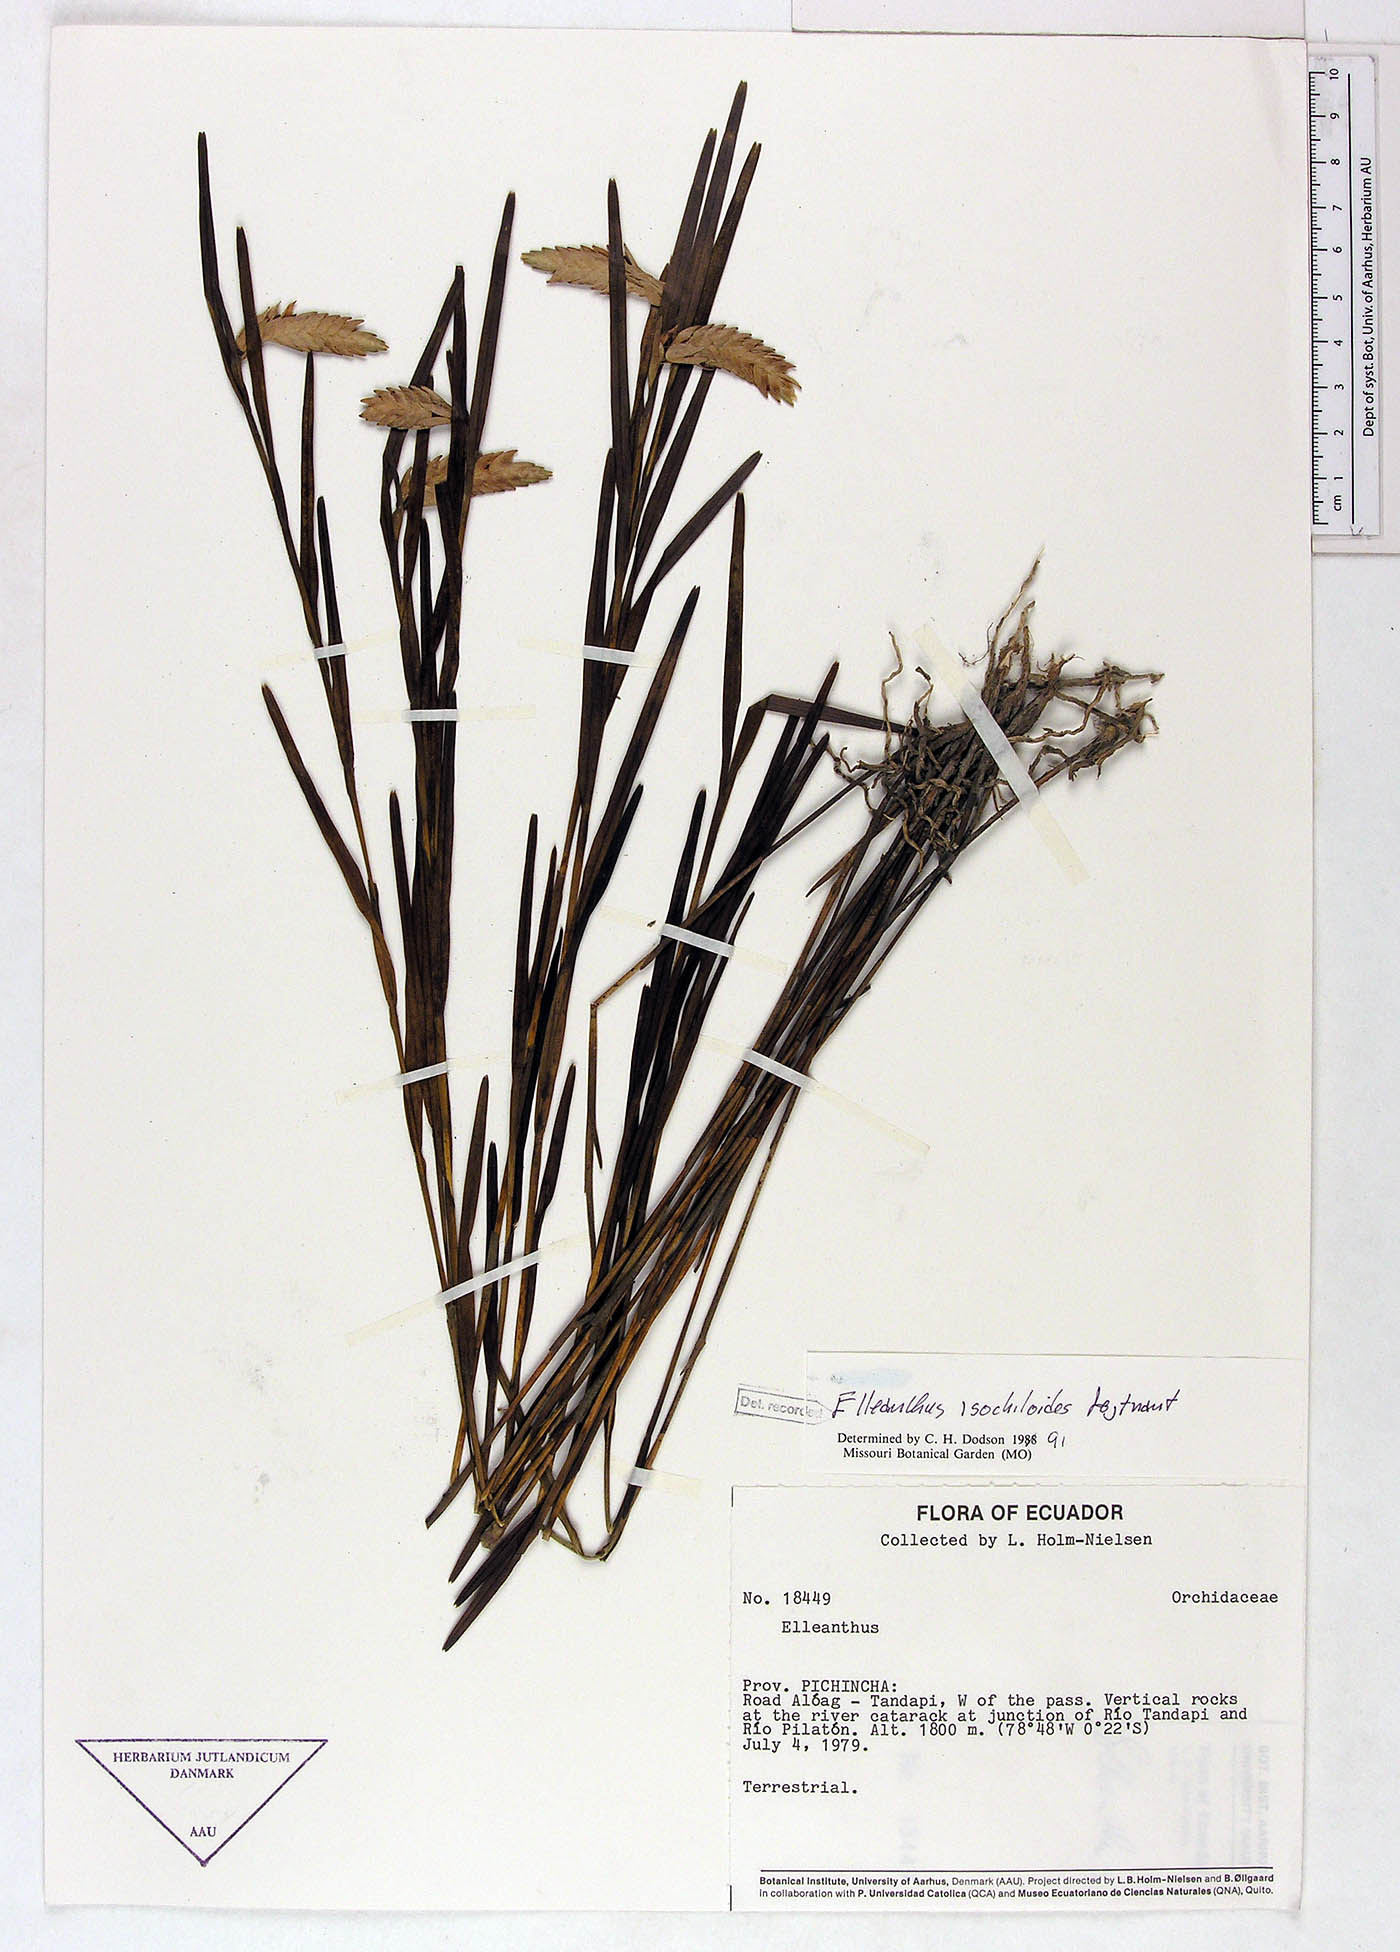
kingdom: Plantae
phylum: Tracheophyta
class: Liliopsida
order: Asparagales
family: Orchidaceae
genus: Elleanthus
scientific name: Elleanthus isochiloides
